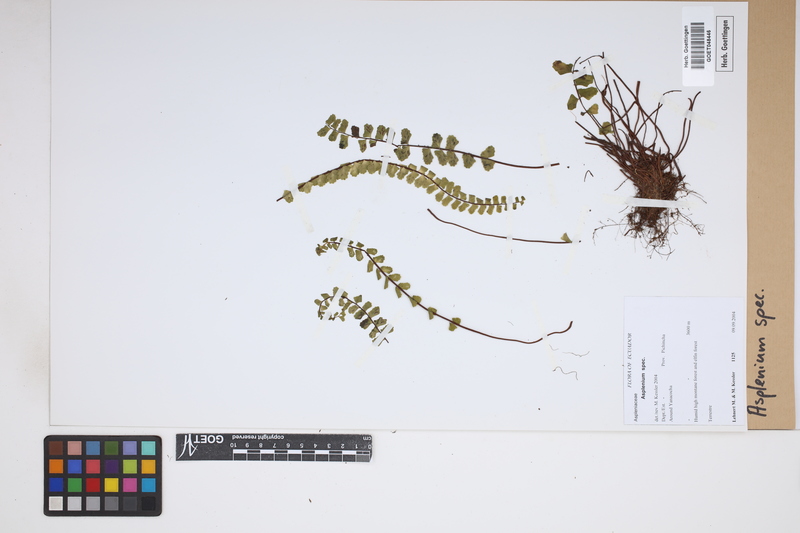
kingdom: Plantae
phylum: Tracheophyta
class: Polypodiopsida
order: Polypodiales
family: Aspleniaceae
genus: Asplenium
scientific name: Asplenium
